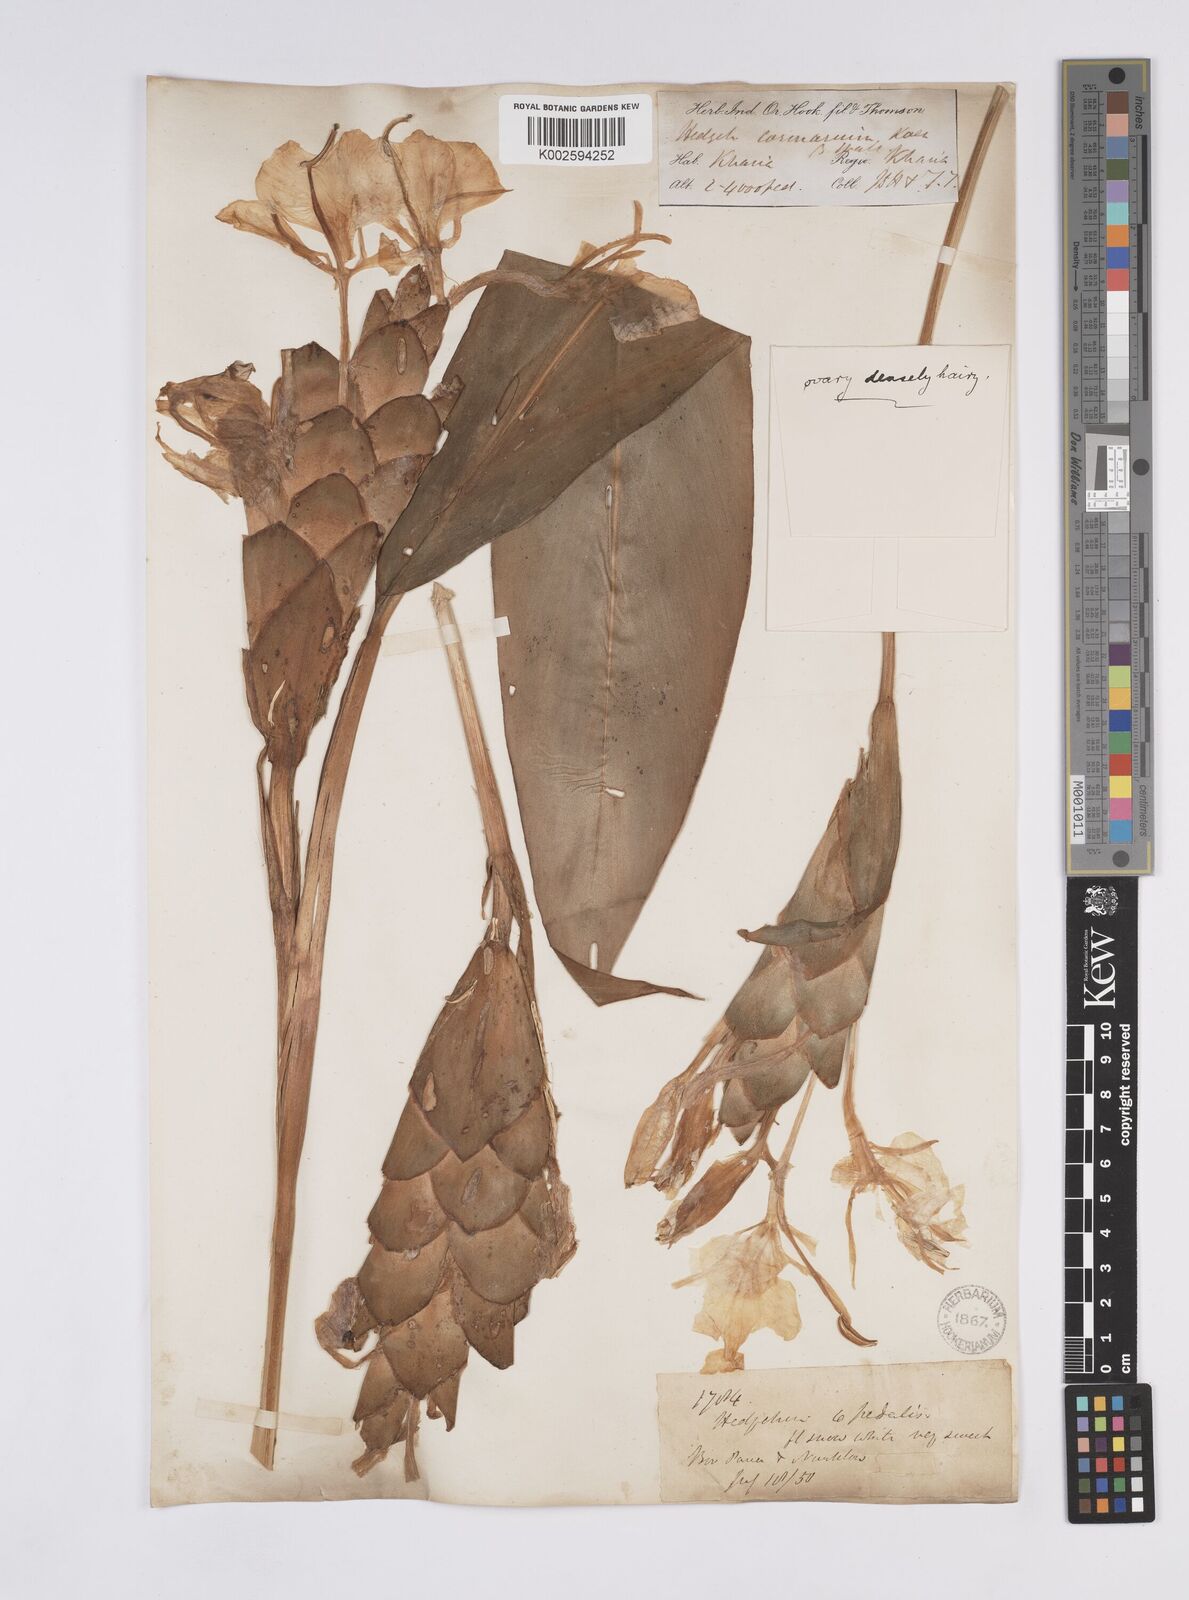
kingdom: Plantae
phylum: Tracheophyta
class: Liliopsida
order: Zingiberales
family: Zingiberaceae
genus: Hedychium
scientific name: Hedychium coronarium
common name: White garland-lily
